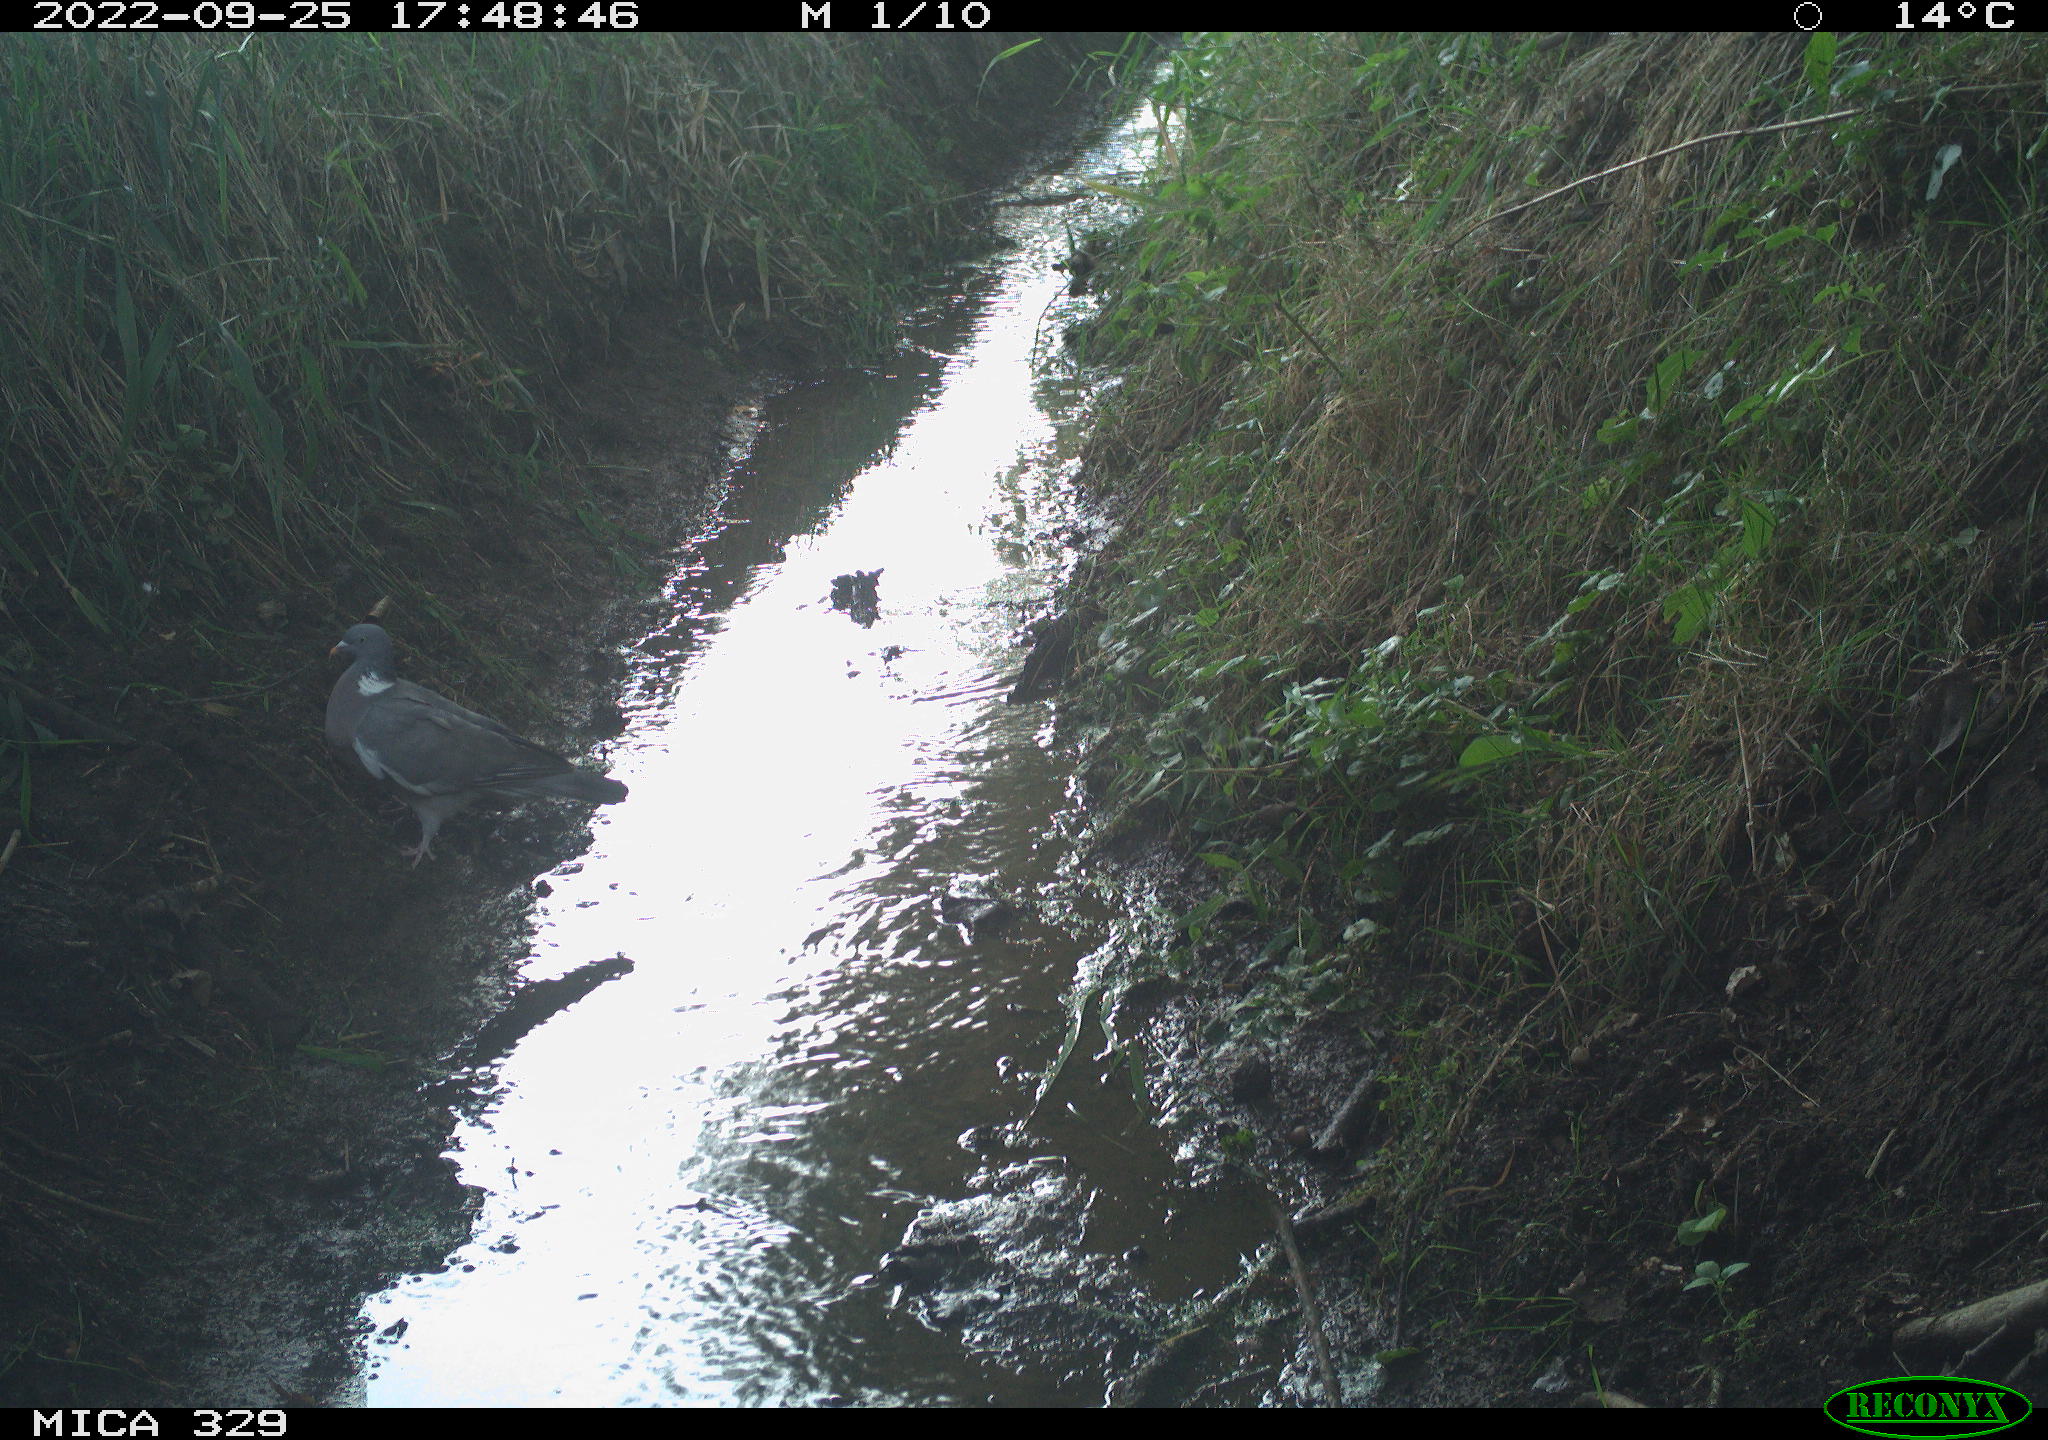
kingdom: Animalia
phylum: Chordata
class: Aves
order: Columbiformes
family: Columbidae
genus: Columba
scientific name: Columba palumbus
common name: Common wood pigeon
